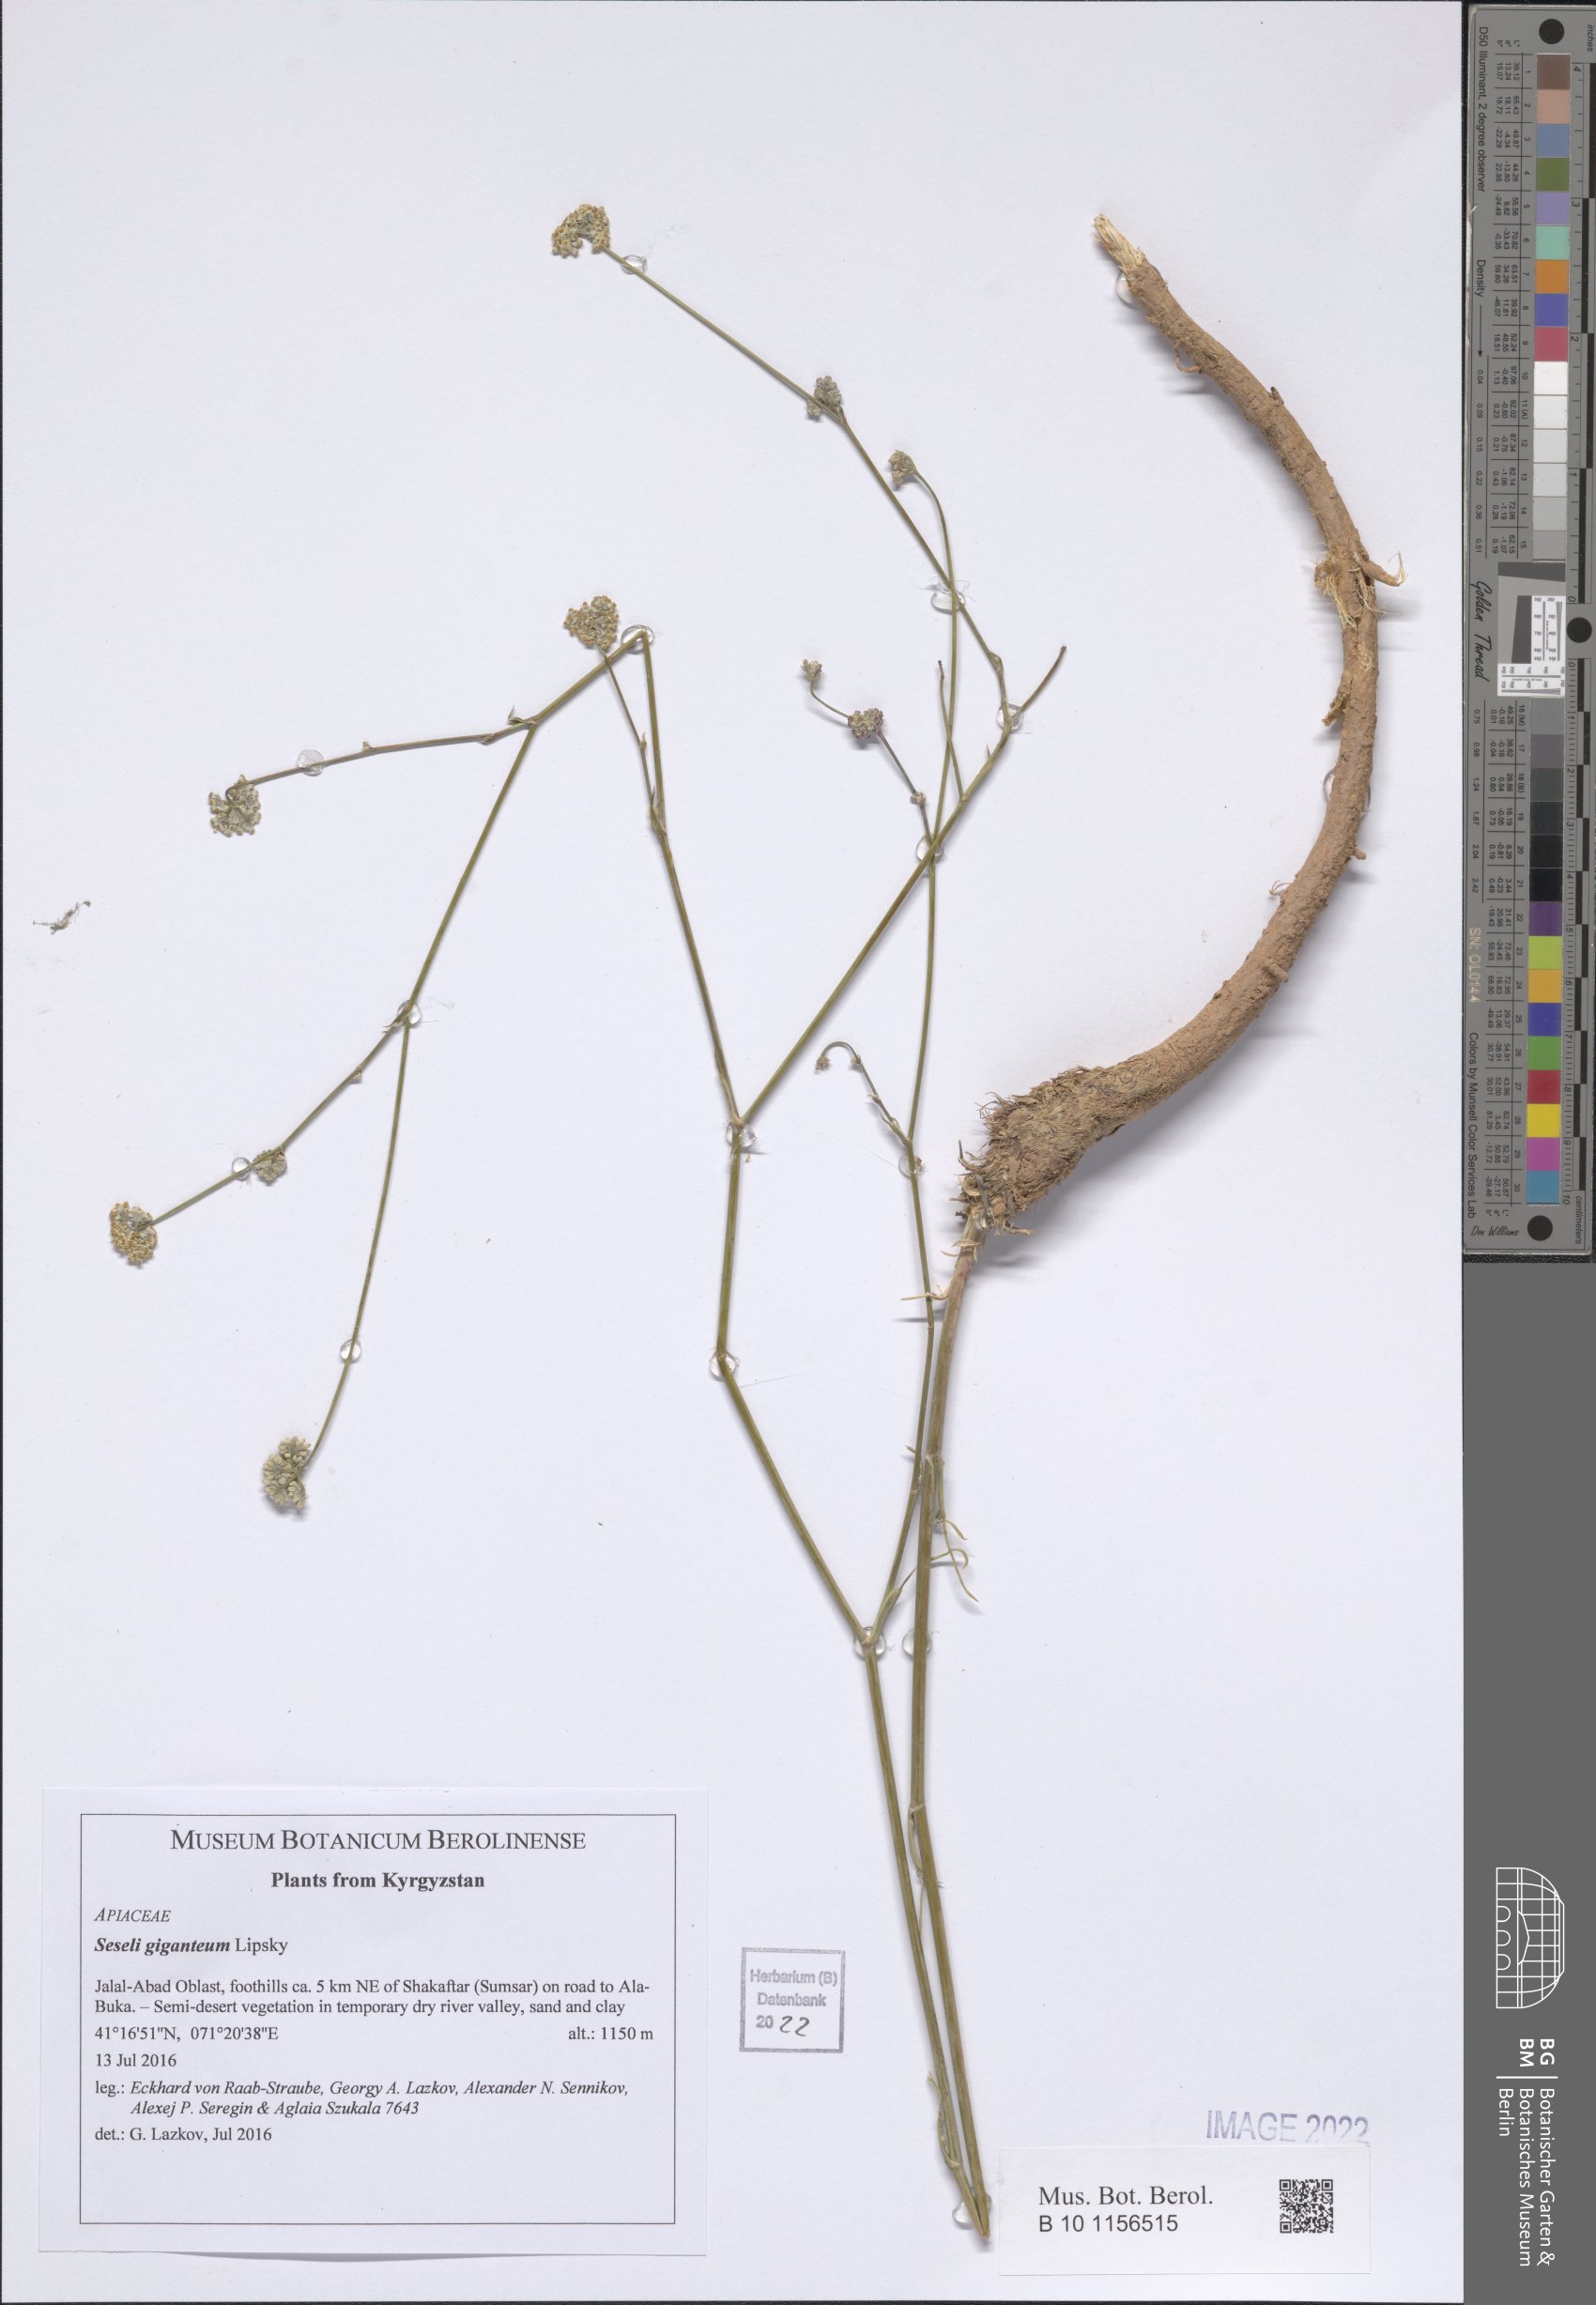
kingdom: Plantae
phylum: Tracheophyta
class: Magnoliopsida
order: Apiales
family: Apiaceae
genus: Seseli
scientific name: Seseli giganteum
